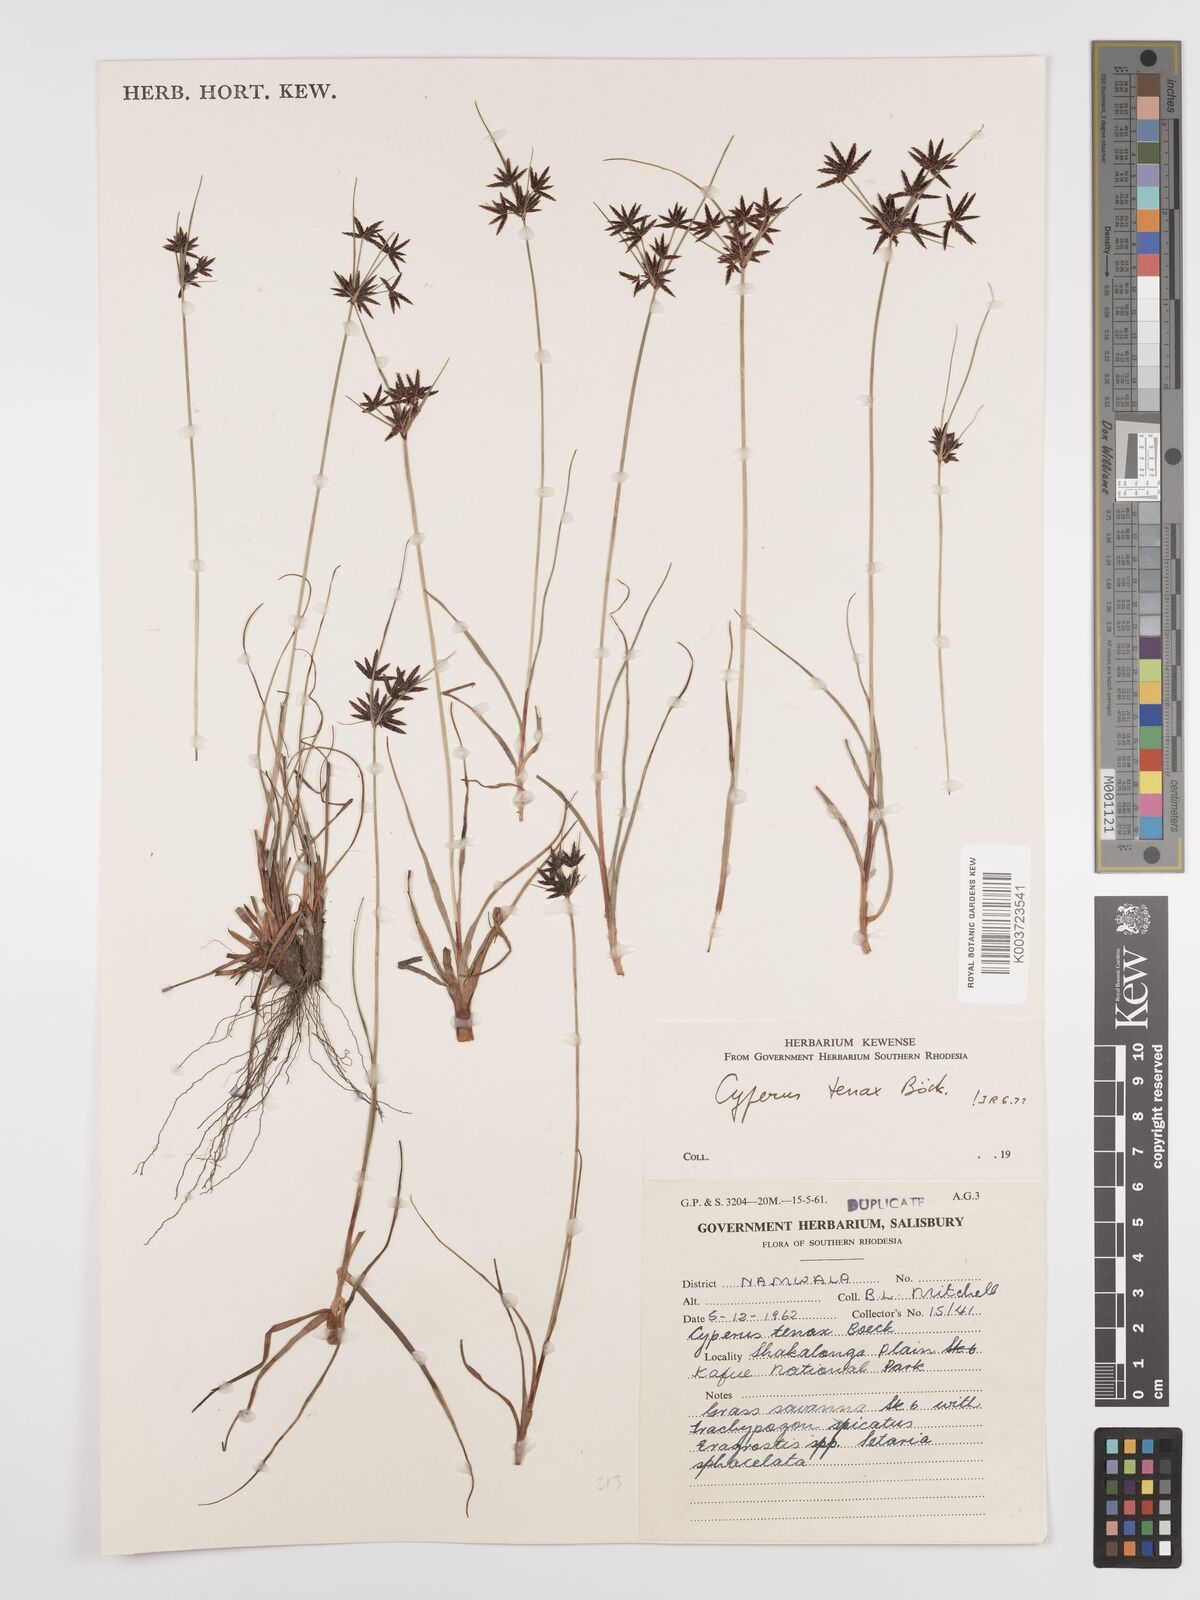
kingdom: Plantae
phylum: Tracheophyta
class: Liliopsida
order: Poales
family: Cyperaceae
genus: Cyperus
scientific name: Cyperus tenax
